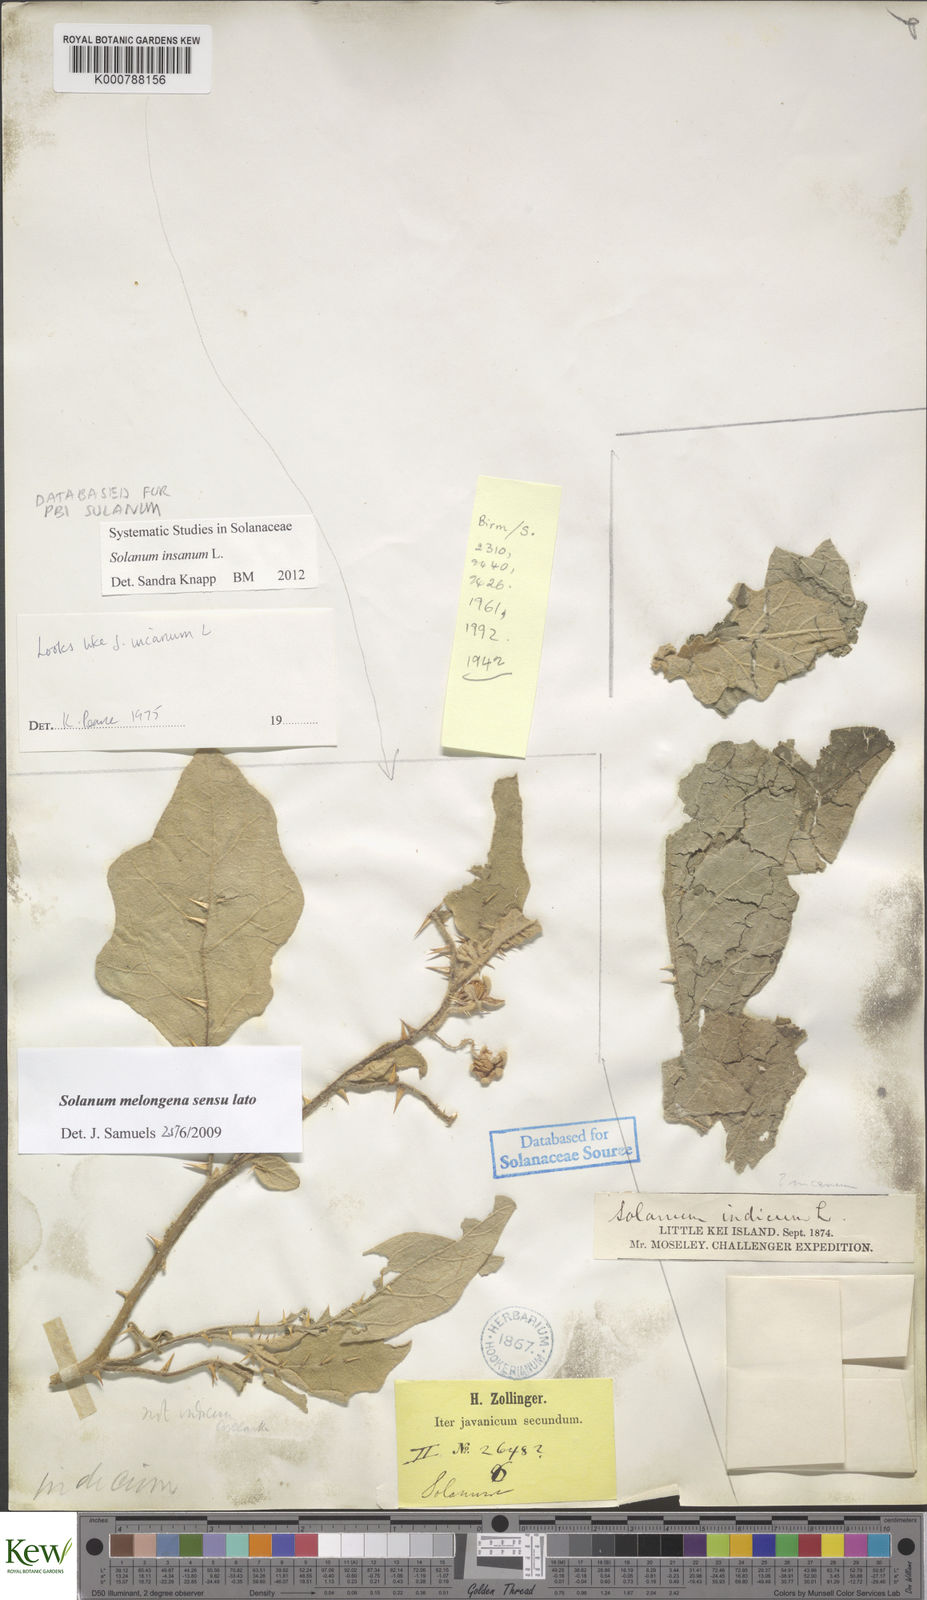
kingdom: Plantae
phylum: Tracheophyta
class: Magnoliopsida
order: Solanales
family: Solanaceae
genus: Solanum
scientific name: Solanum insanum
